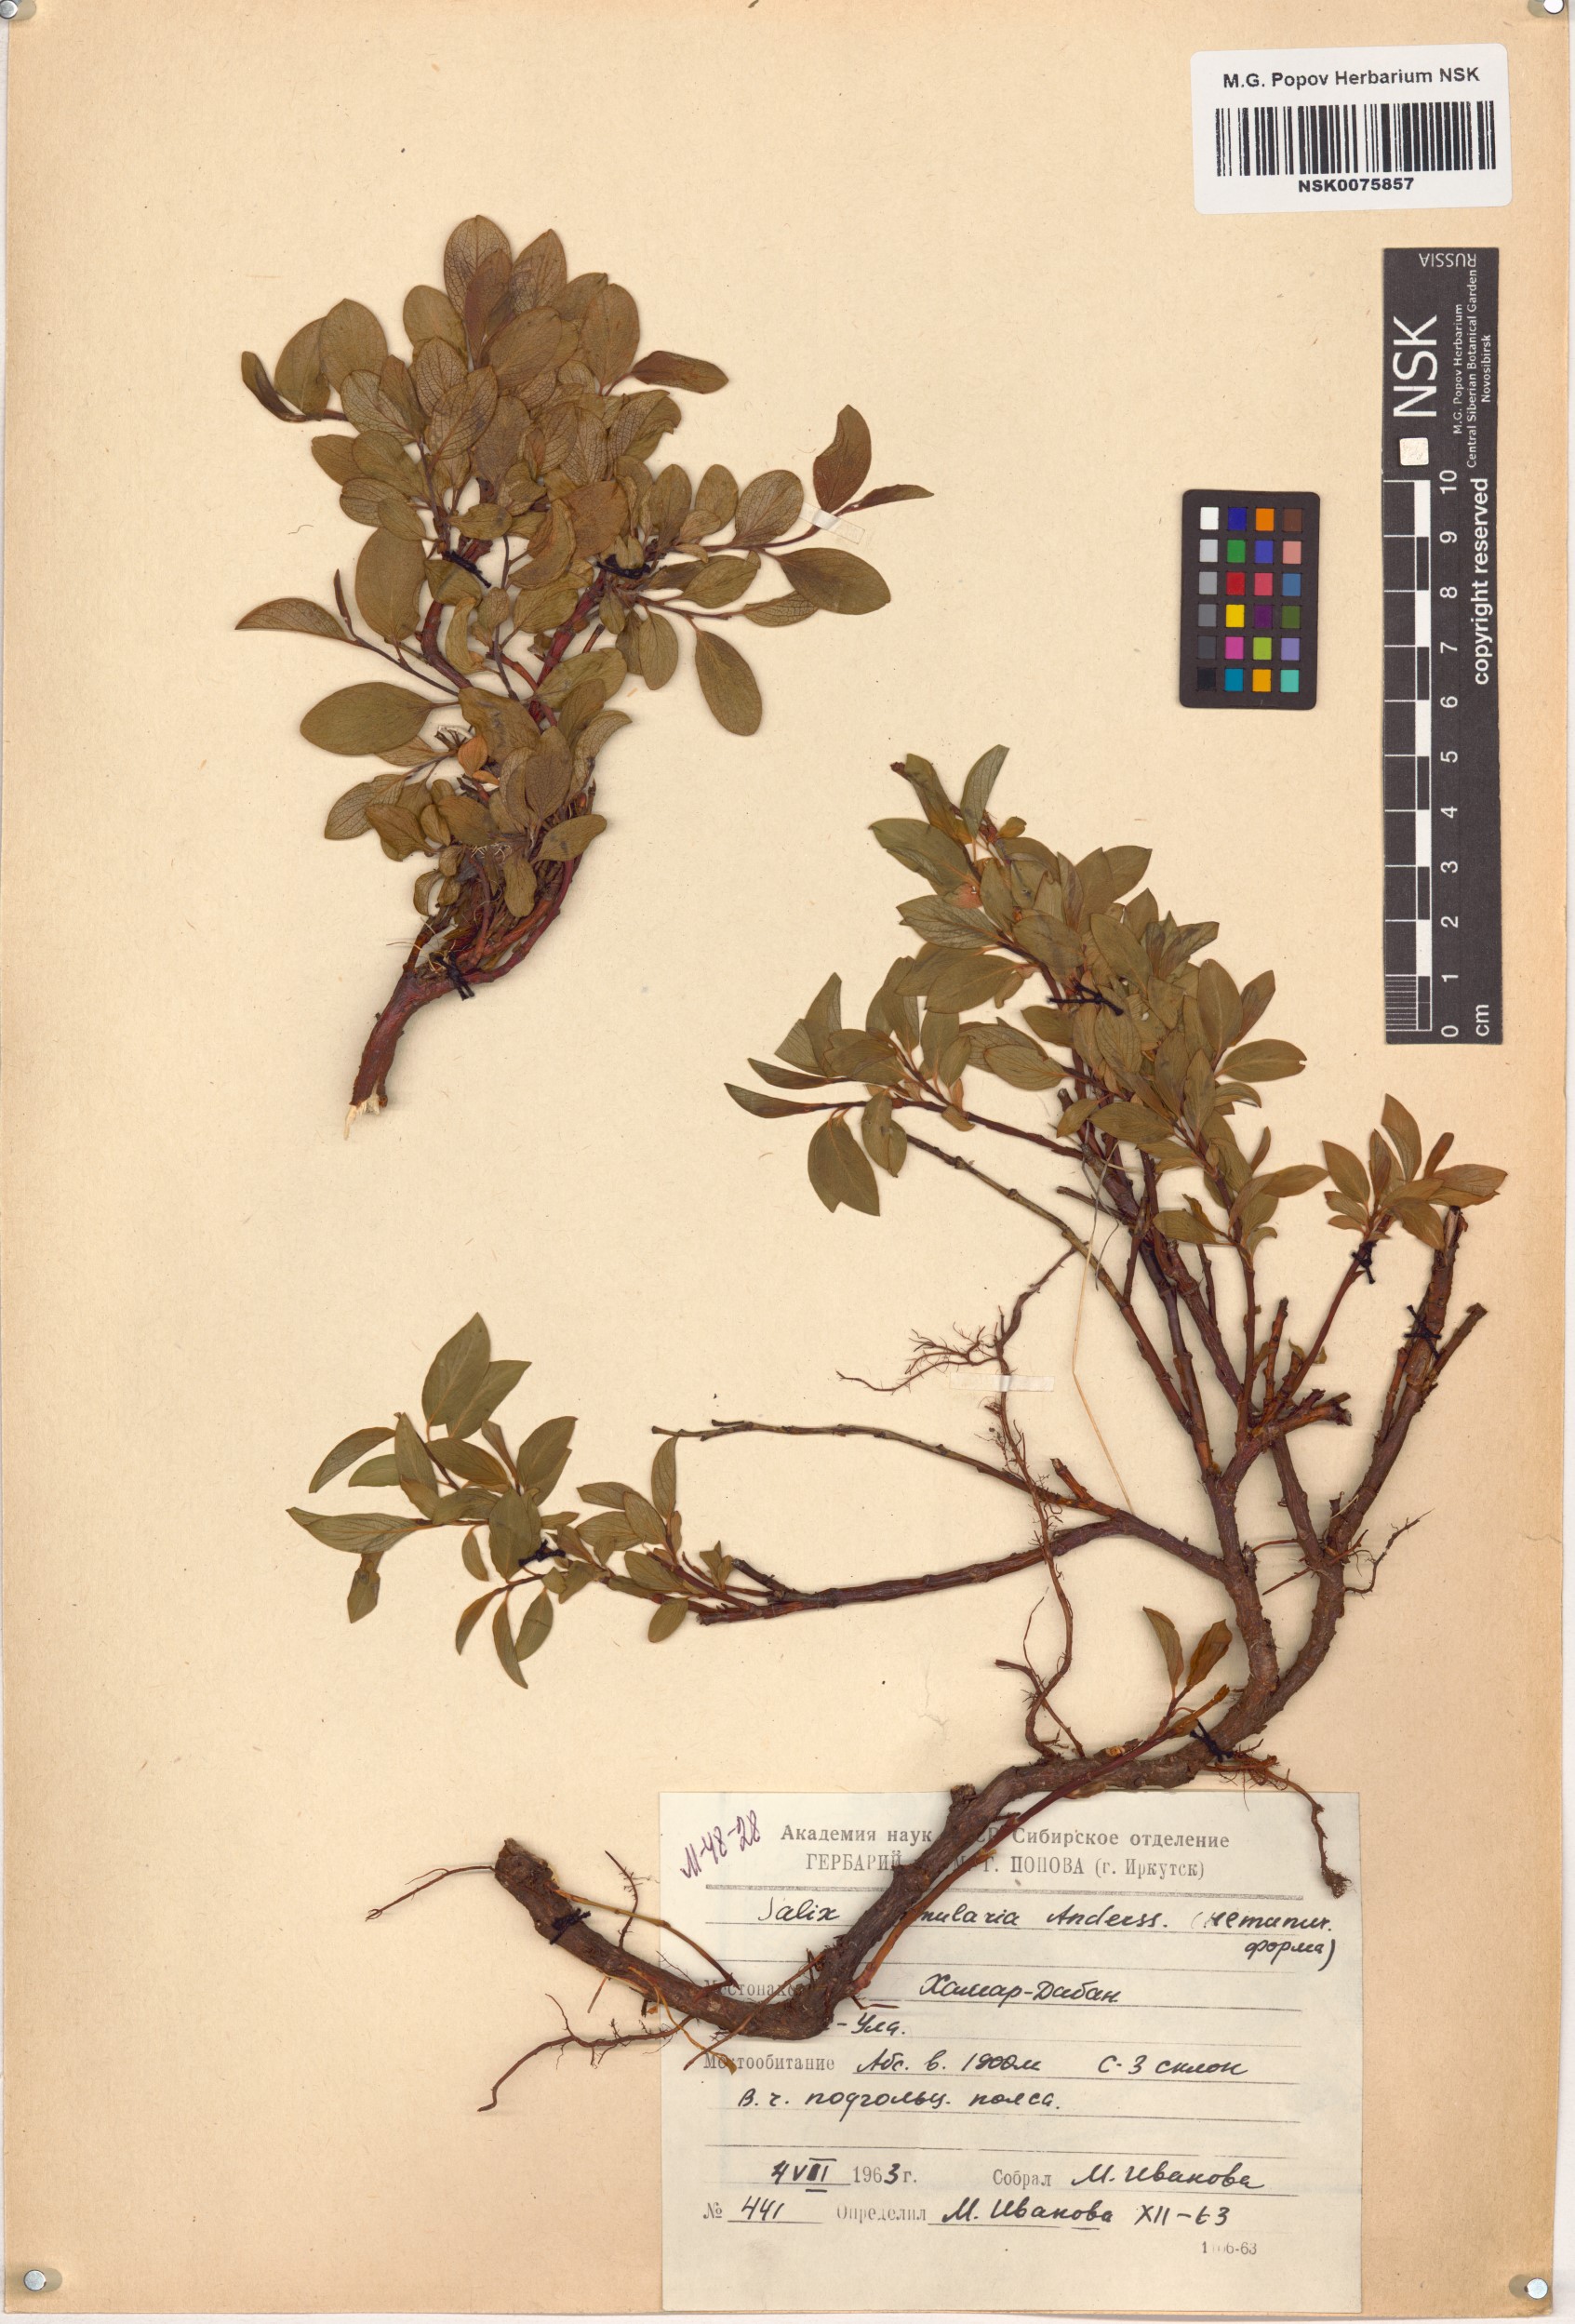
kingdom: Plantae
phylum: Tracheophyta
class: Magnoliopsida
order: Malpighiales
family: Salicaceae
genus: Salix
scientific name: Salix nummularia
